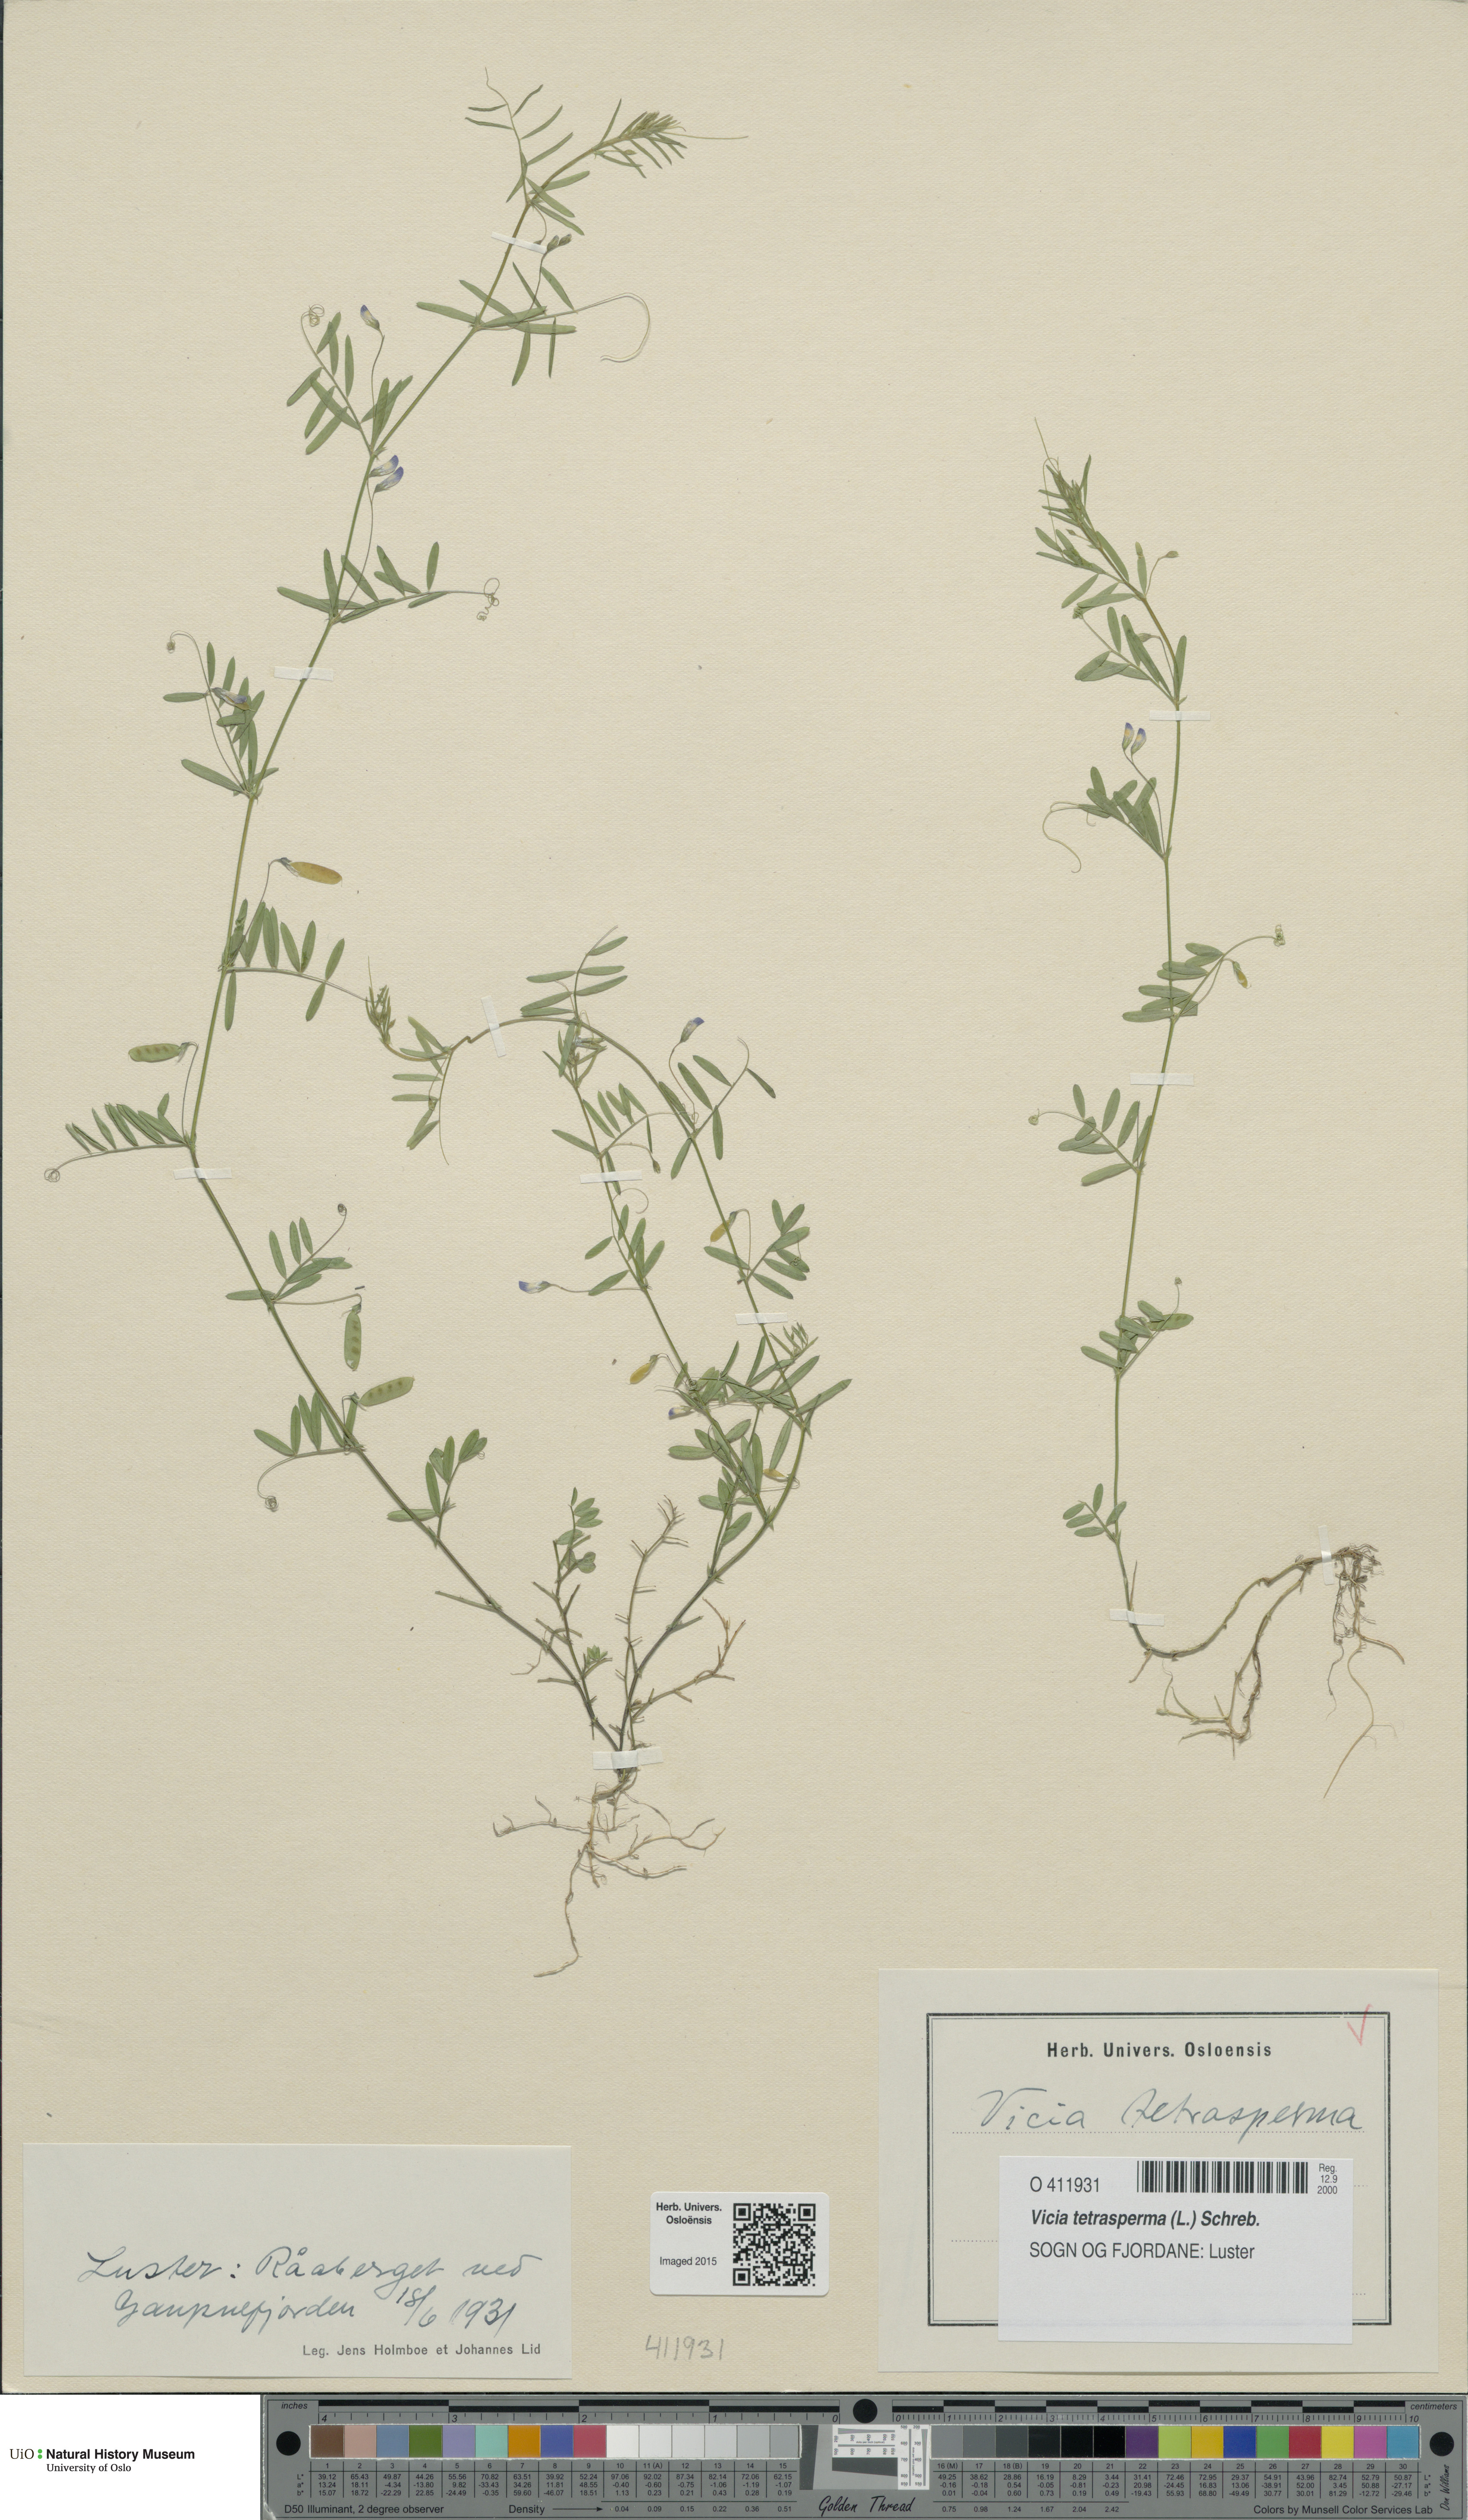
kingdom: Plantae
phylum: Tracheophyta
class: Magnoliopsida
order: Fabales
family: Fabaceae
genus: Vicia
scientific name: Vicia tetrasperma
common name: Smooth tare
